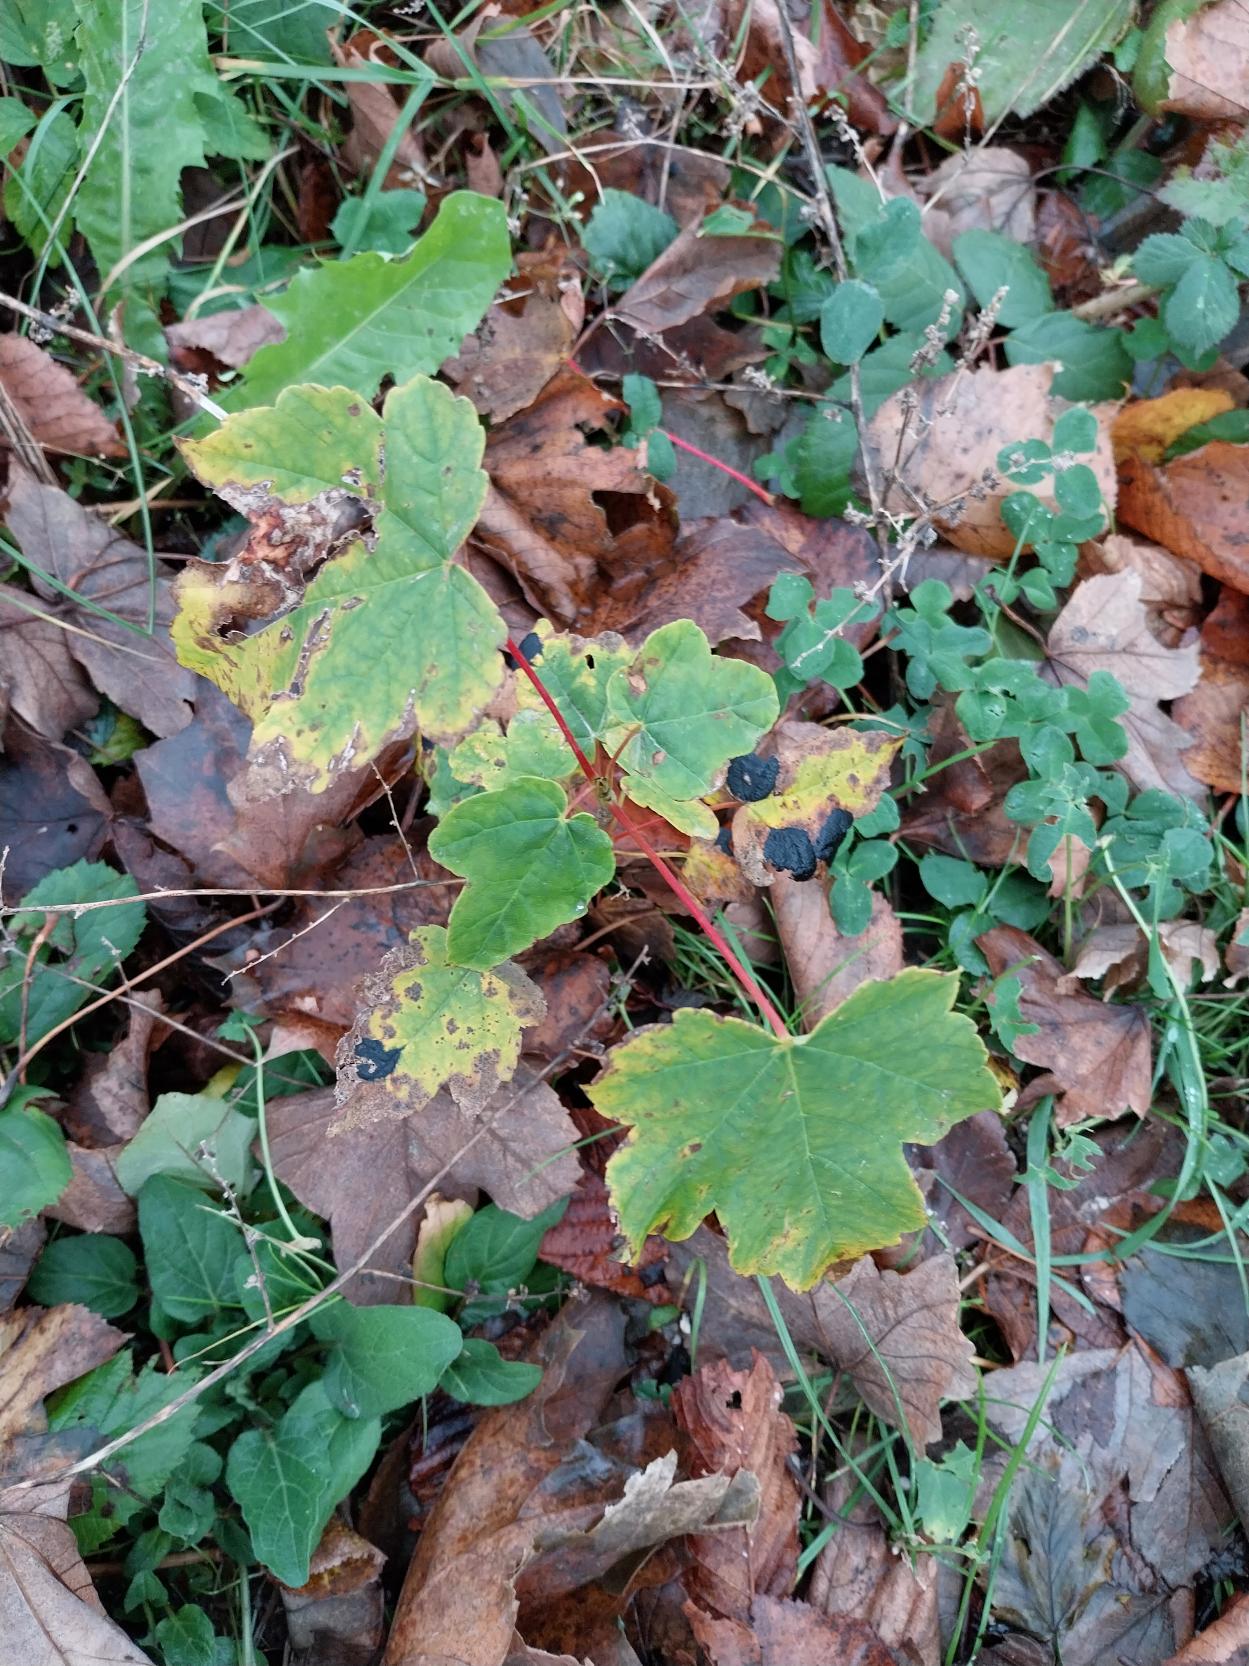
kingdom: Plantae
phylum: Tracheophyta
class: Magnoliopsida
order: Sapindales
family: Sapindaceae
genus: Acer
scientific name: Acer pseudoplatanus
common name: Ahorn
